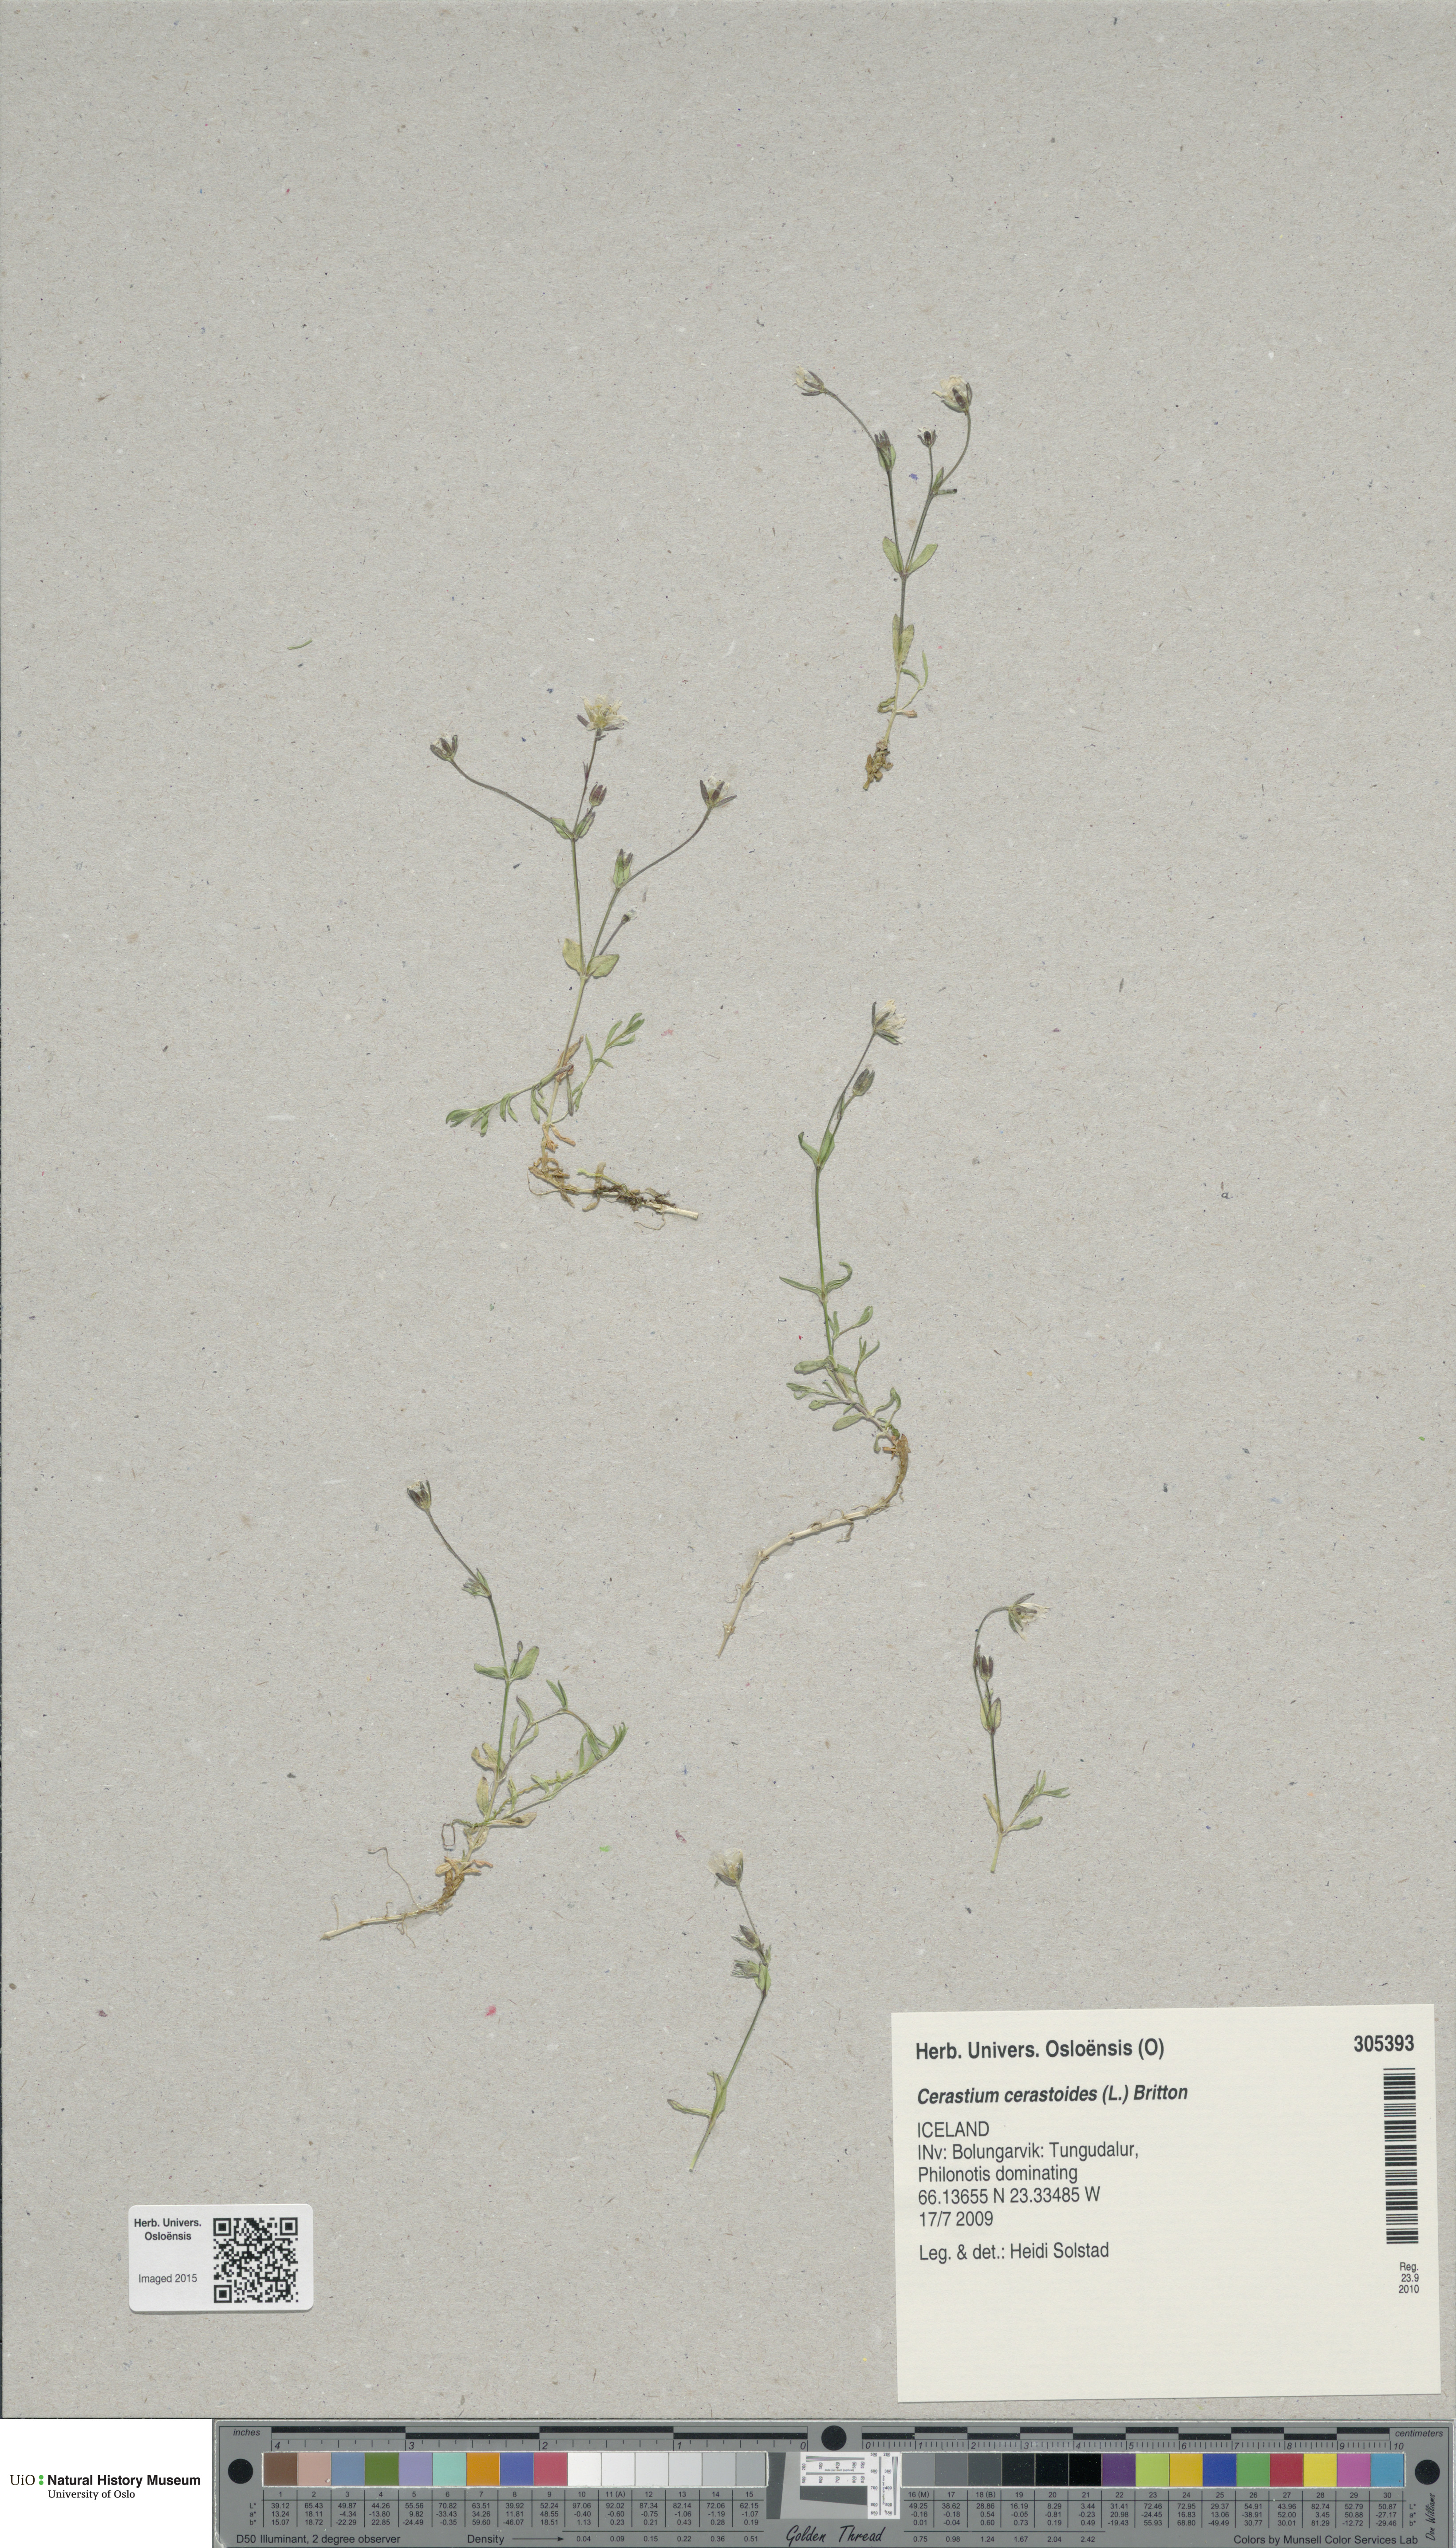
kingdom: Plantae
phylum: Tracheophyta
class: Magnoliopsida
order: Caryophyllales
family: Caryophyllaceae
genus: Dichodon
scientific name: Dichodon cerastoides
